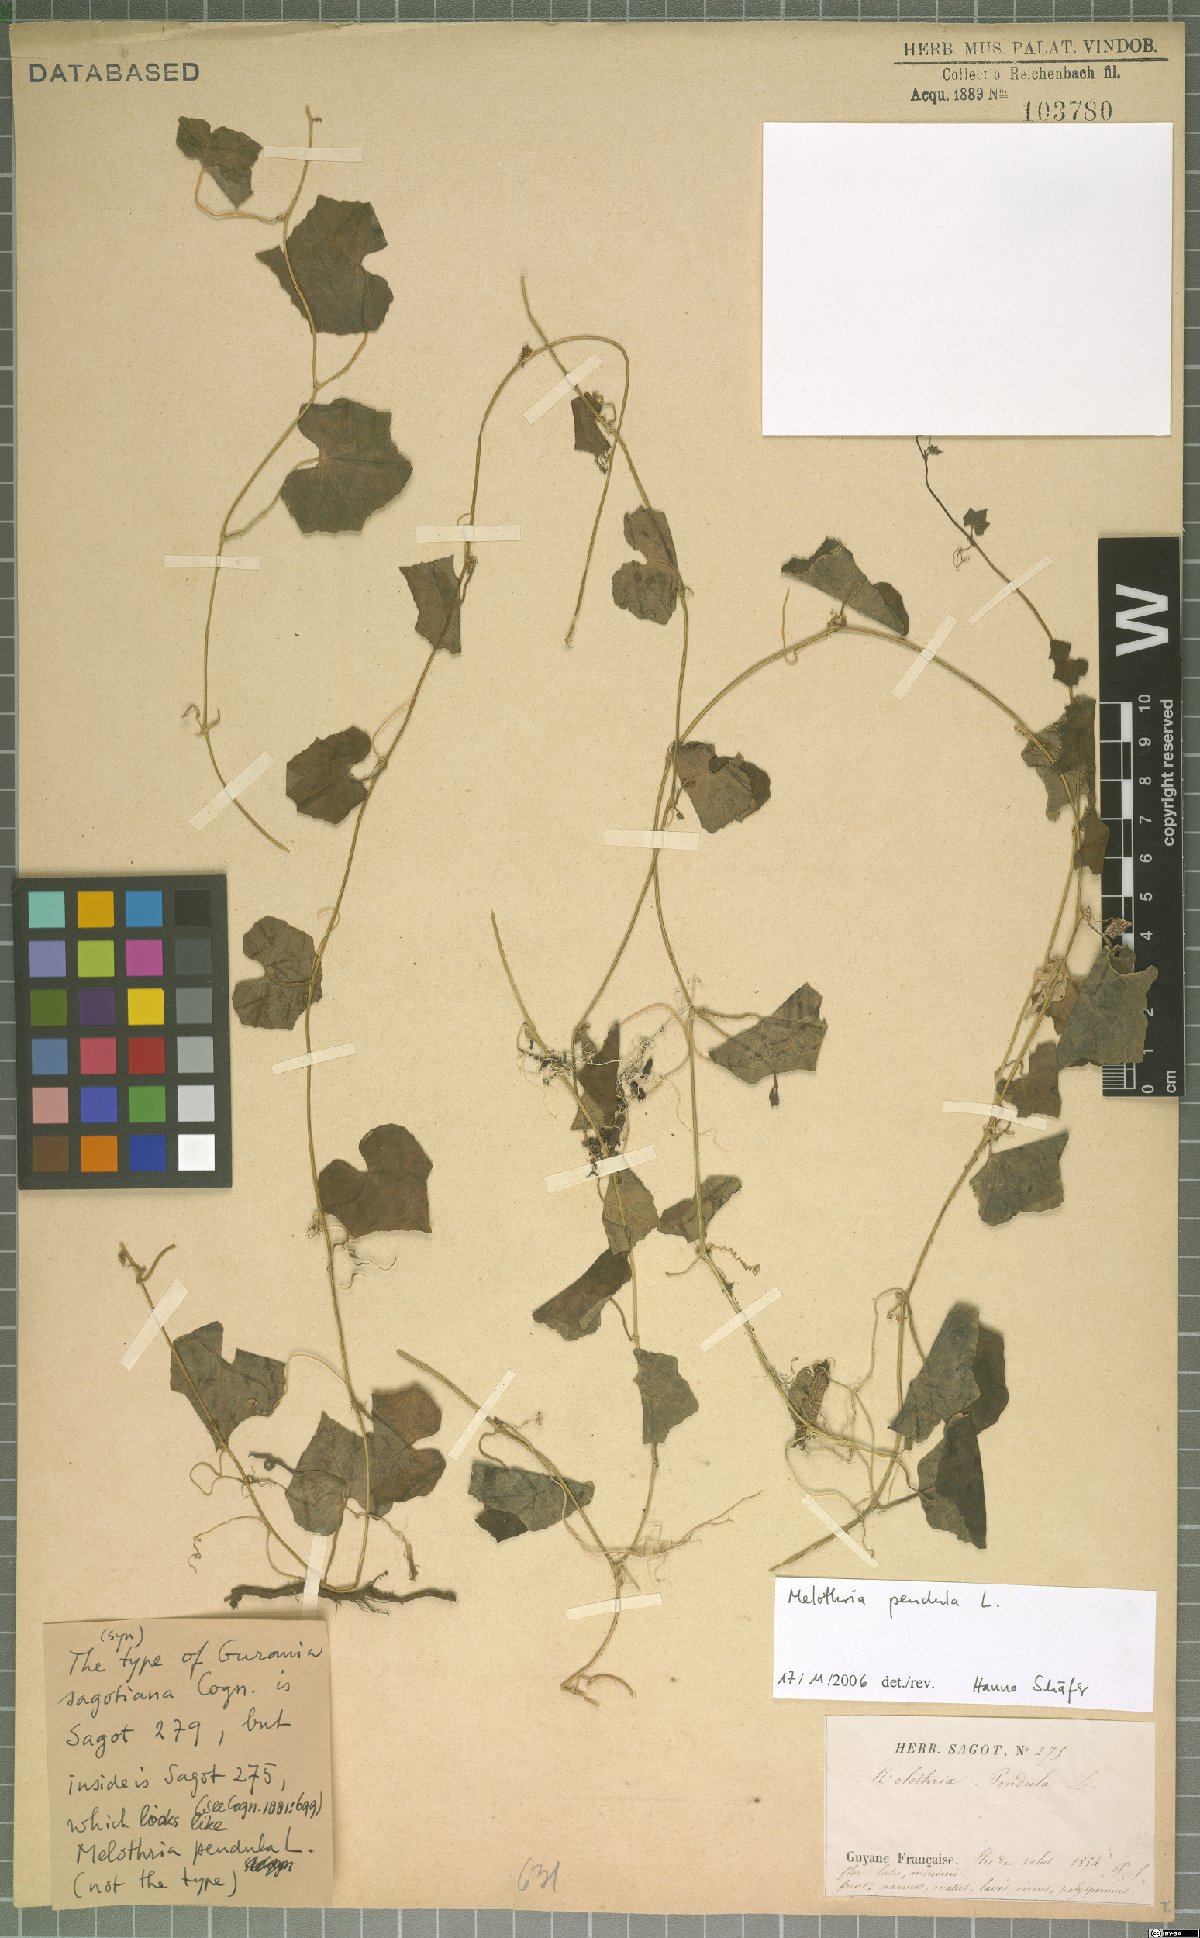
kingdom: Plantae
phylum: Tracheophyta
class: Magnoliopsida
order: Cucurbitales
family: Cucurbitaceae
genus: Melothria
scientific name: Melothria pendula
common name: Creeping-cucumber
